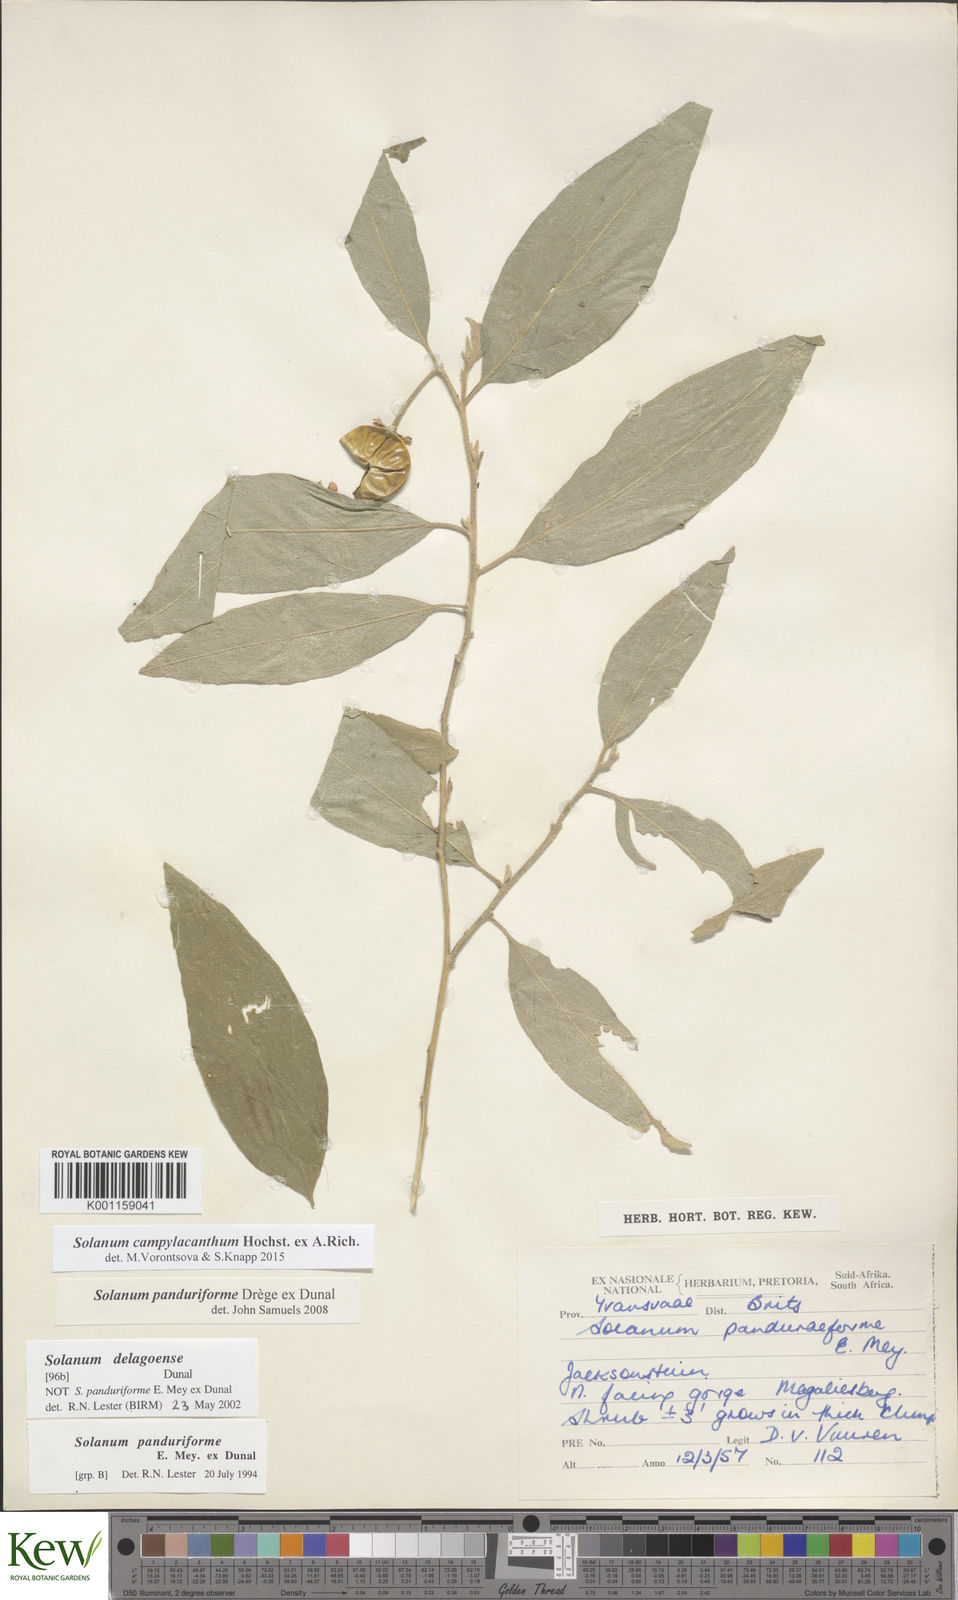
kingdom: Plantae
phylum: Tracheophyta
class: Magnoliopsida
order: Solanales
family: Solanaceae
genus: Solanum
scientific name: Solanum campylacanthum
